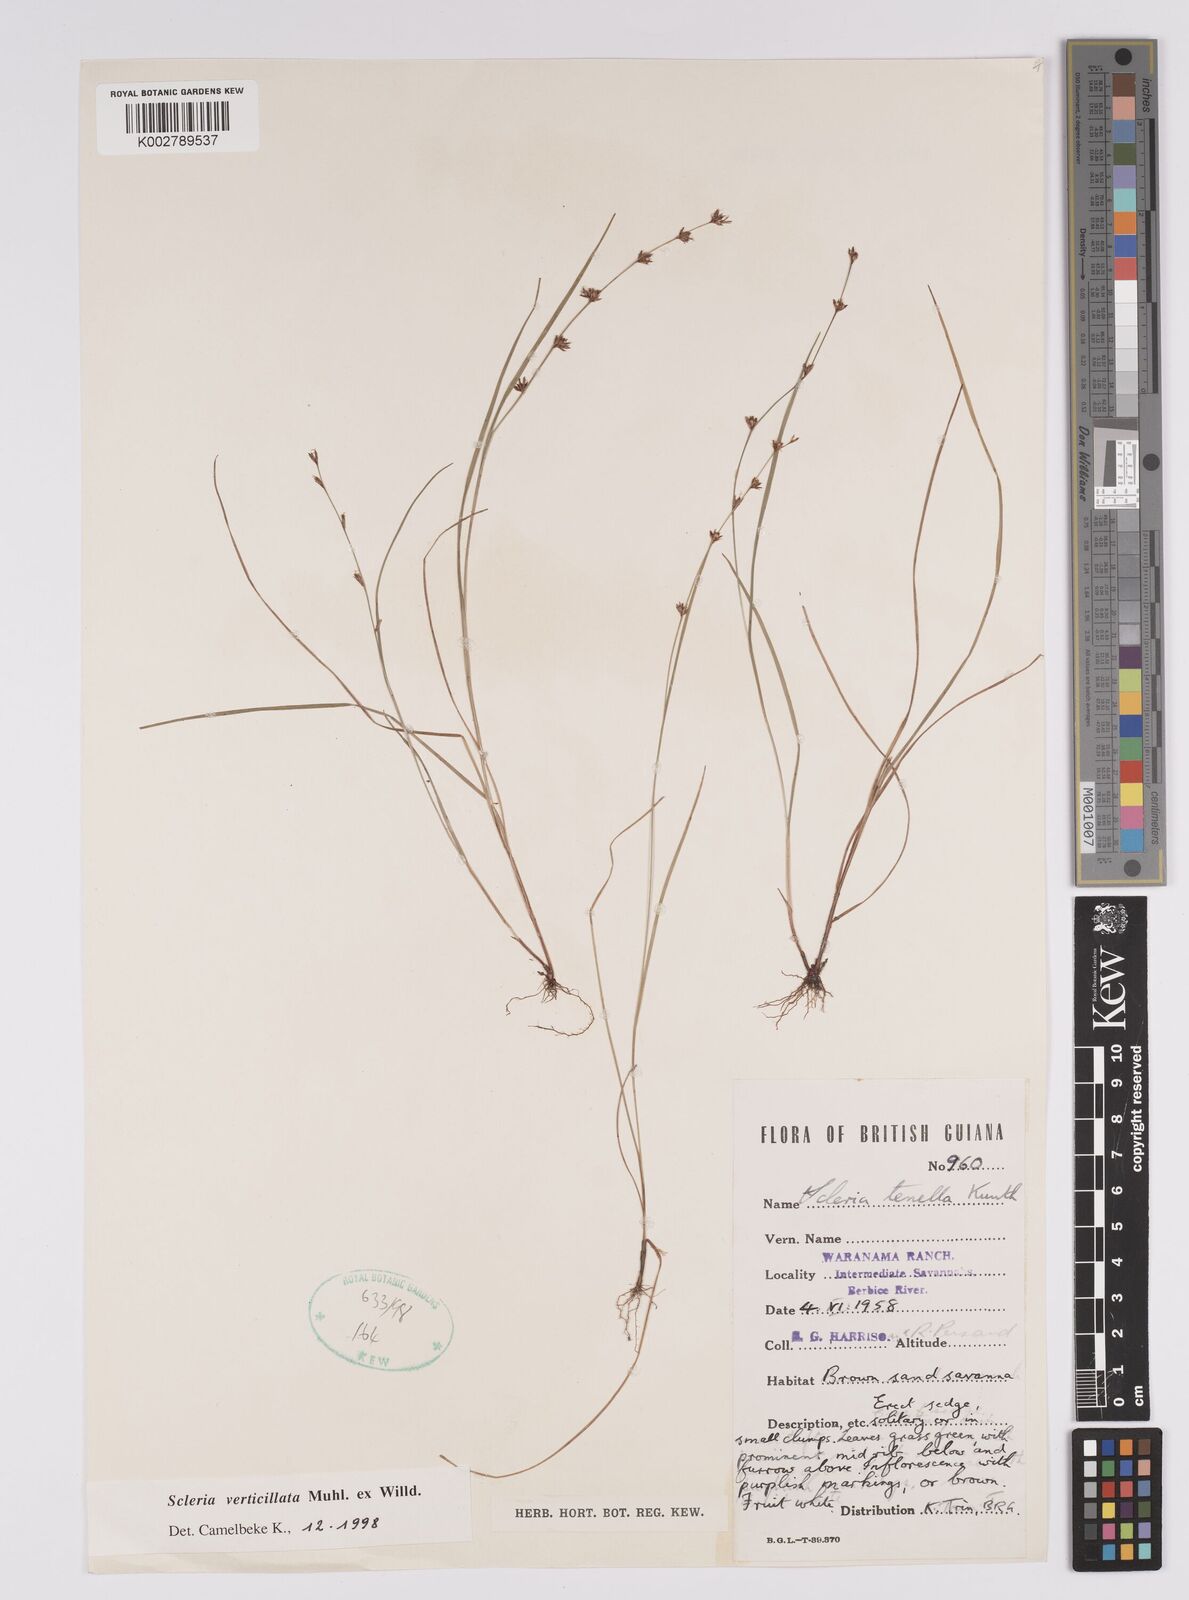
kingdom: Plantae
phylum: Tracheophyta
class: Liliopsida
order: Poales
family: Cyperaceae
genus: Scleria
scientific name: Scleria verticillata
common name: Low nutrush
